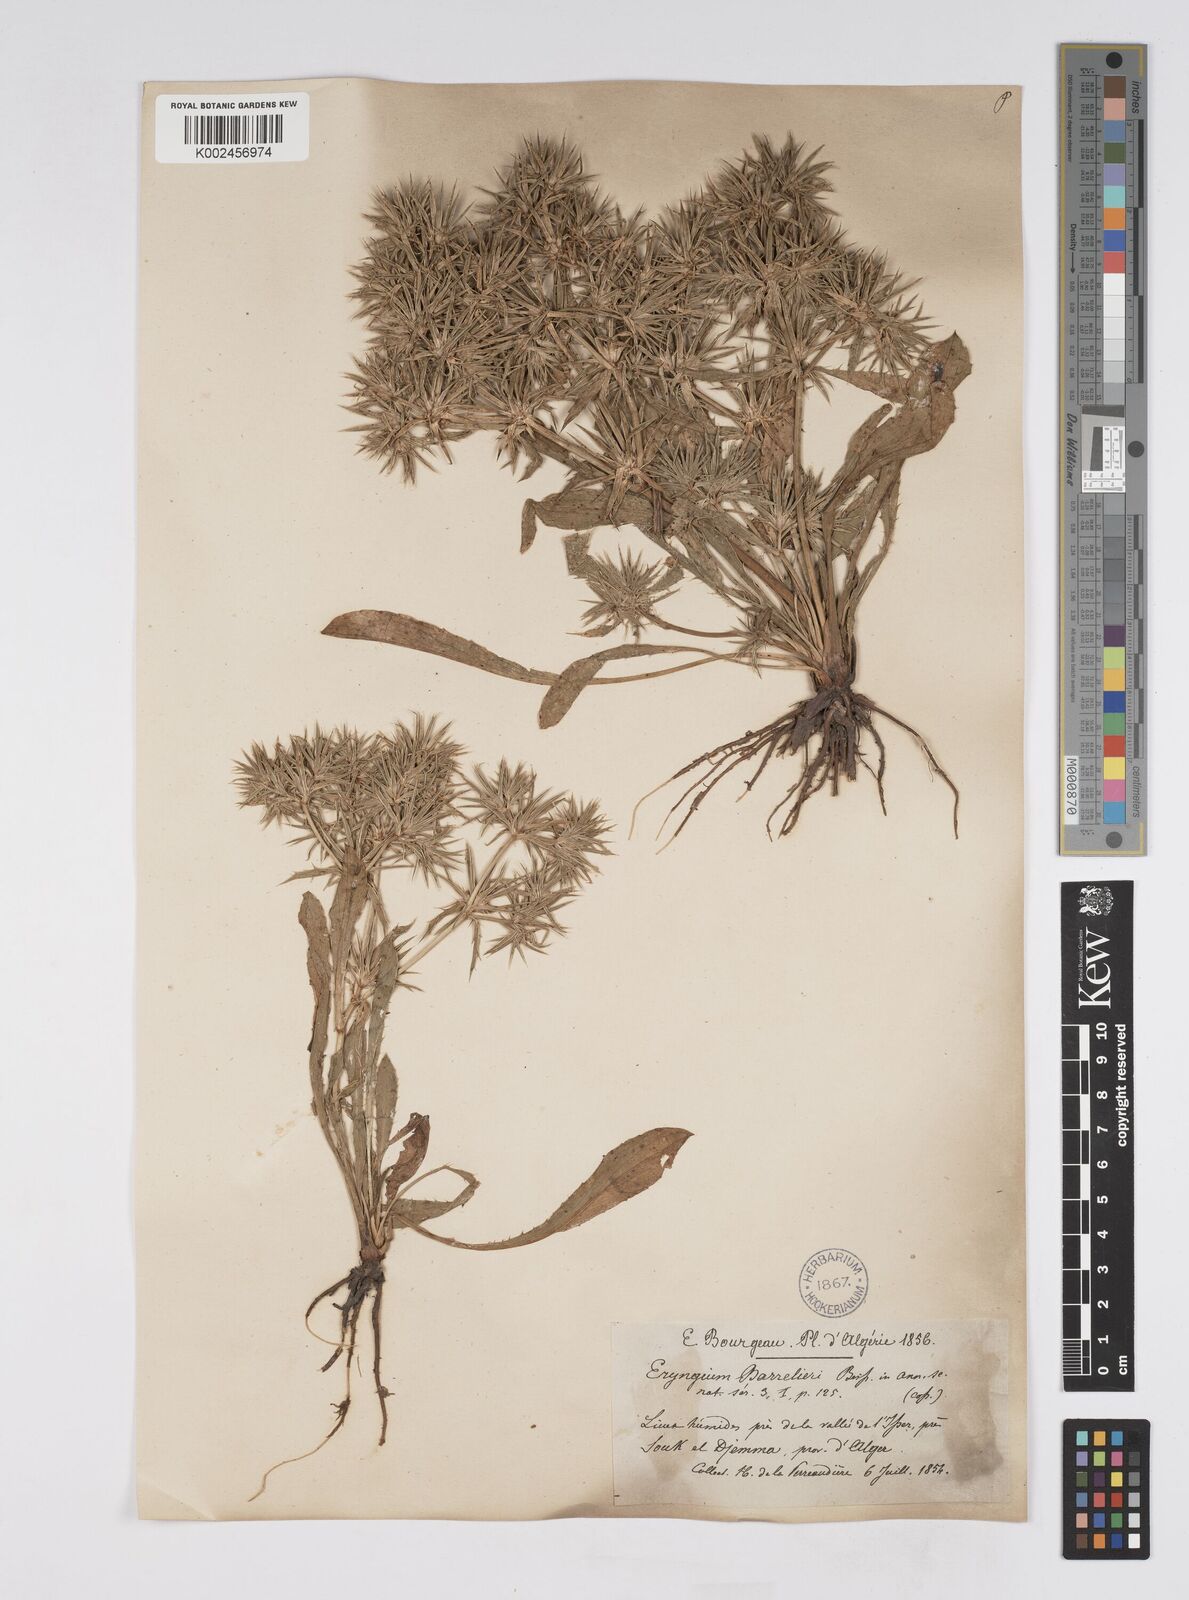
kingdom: Plantae
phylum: Tracheophyta
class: Magnoliopsida
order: Apiales
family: Apiaceae
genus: Eryngium
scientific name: Eryngium pusillum
